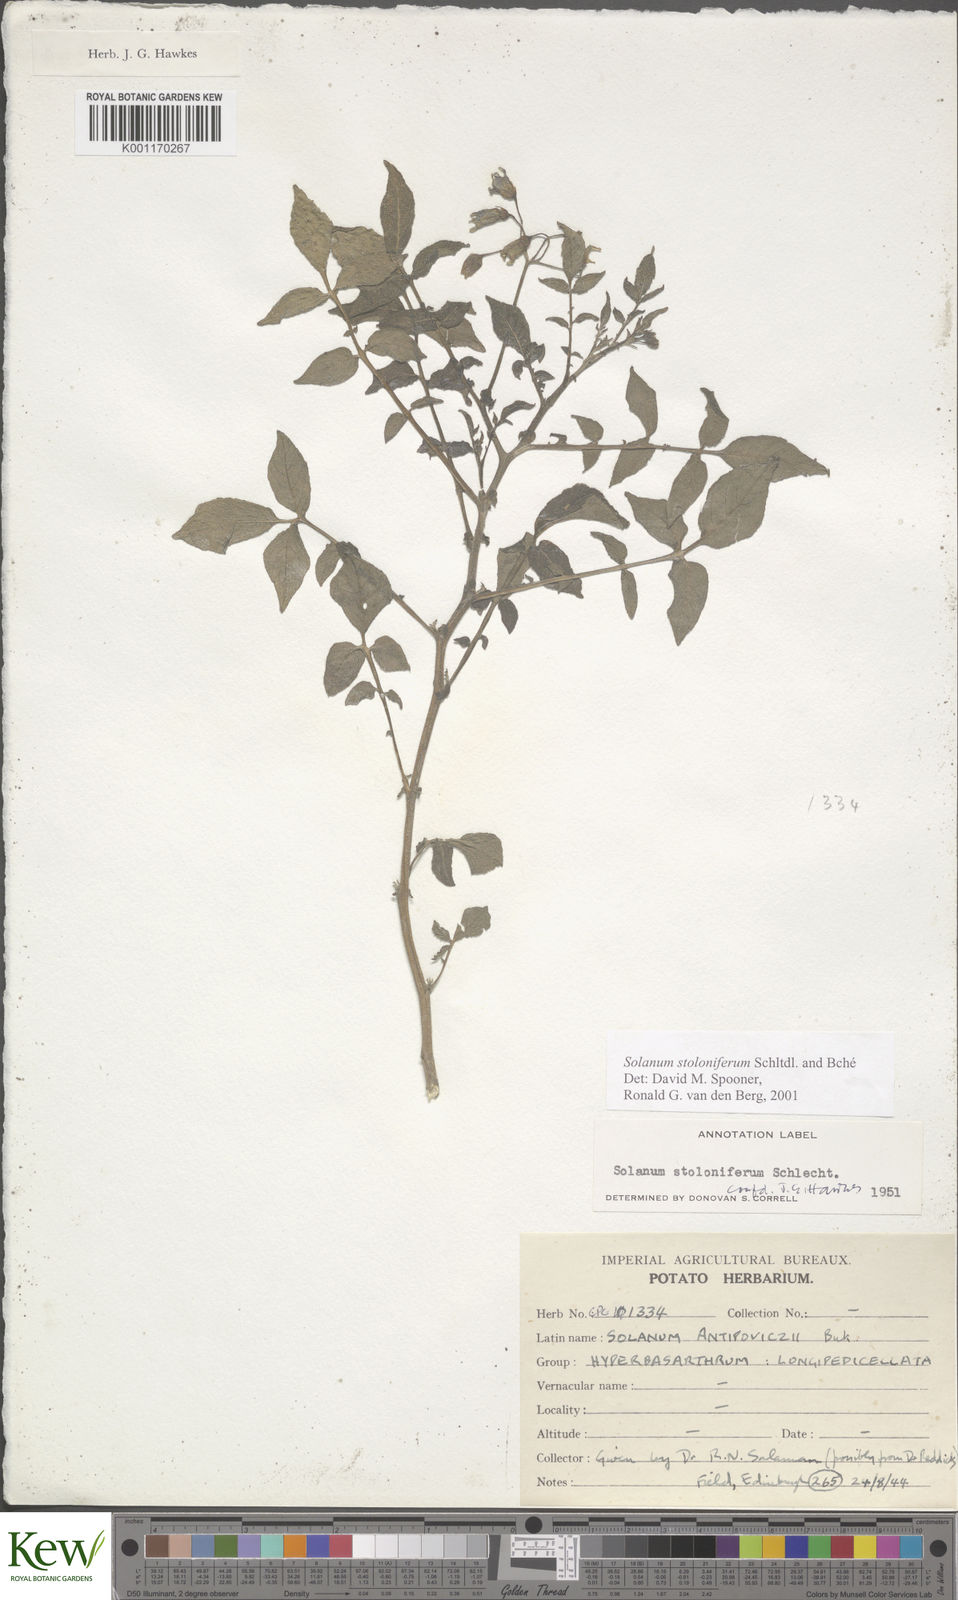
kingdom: Plantae
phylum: Tracheophyta
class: Magnoliopsida
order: Solanales
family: Solanaceae
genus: Solanum
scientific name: Solanum stoloniferum
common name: Fendler's nighshade
